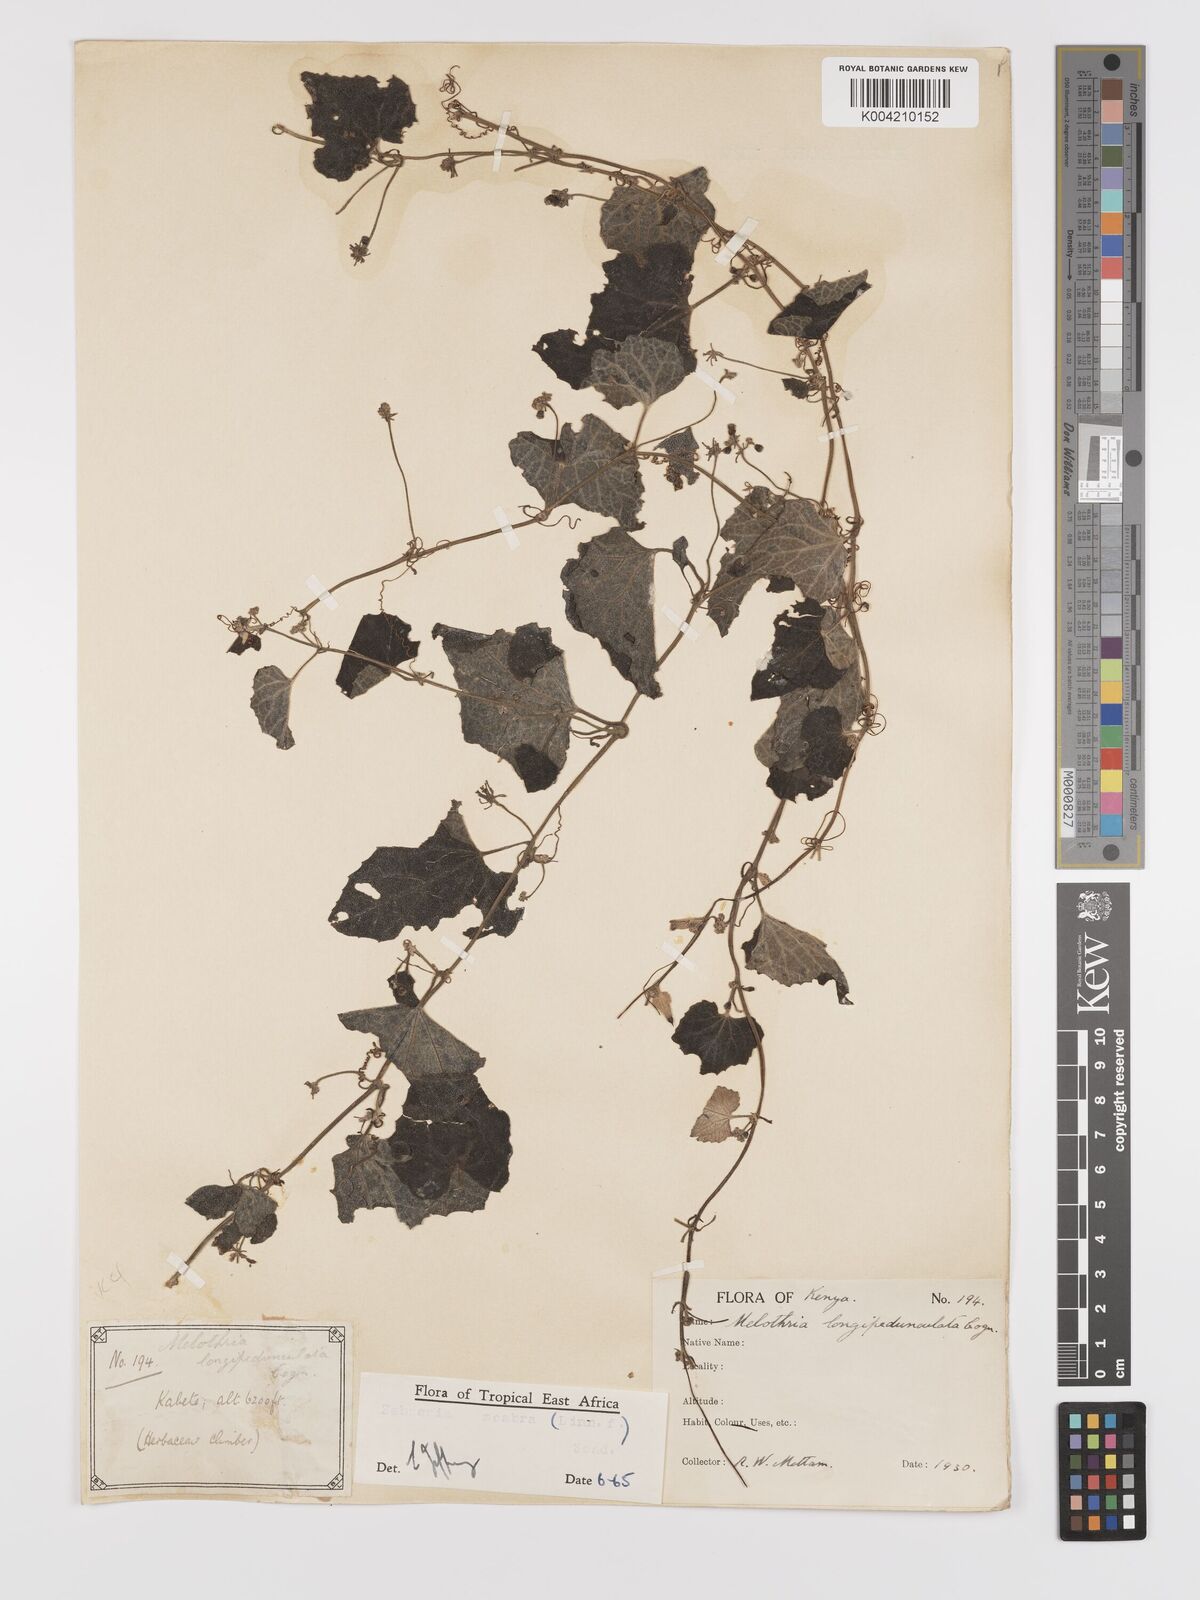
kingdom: Plantae
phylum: Tracheophyta
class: Magnoliopsida
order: Cucurbitales
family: Cucurbitaceae
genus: Zehneria
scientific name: Zehneria scabra
